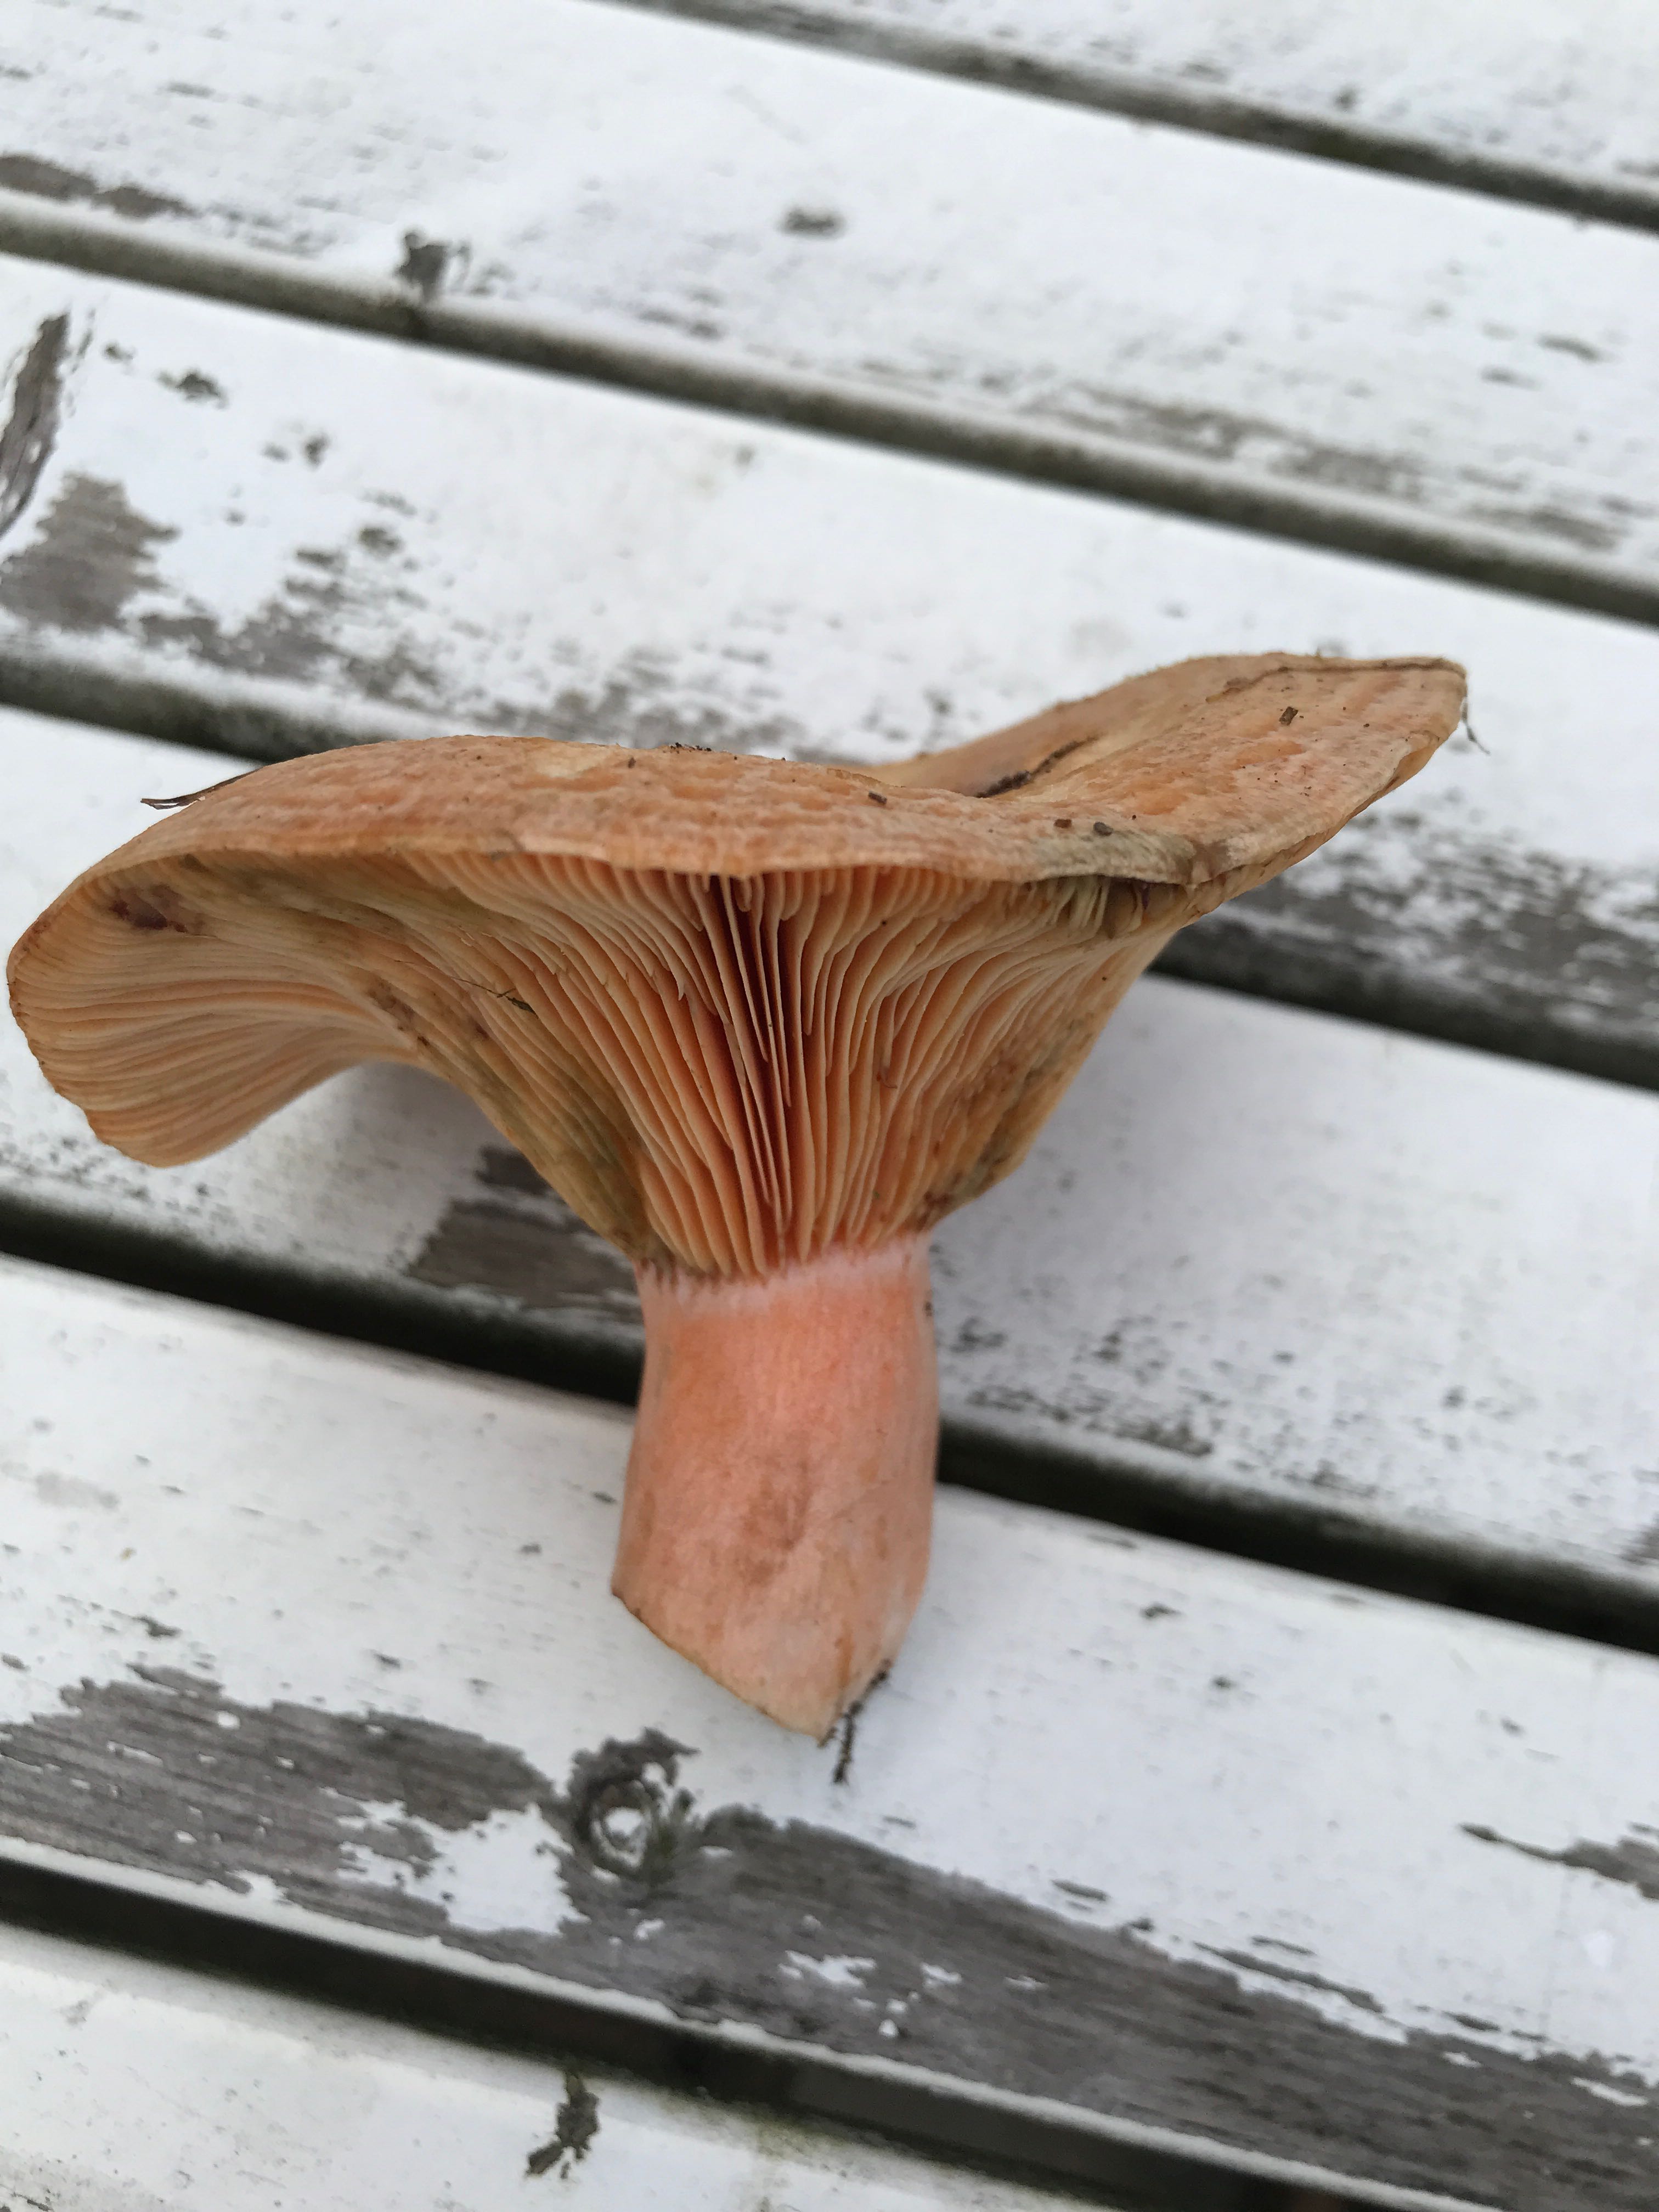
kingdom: Fungi
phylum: Basidiomycota
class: Agaricomycetes
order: Russulales
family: Russulaceae
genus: Lactarius
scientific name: Lactarius deterrimus
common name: gran-mælkehat
